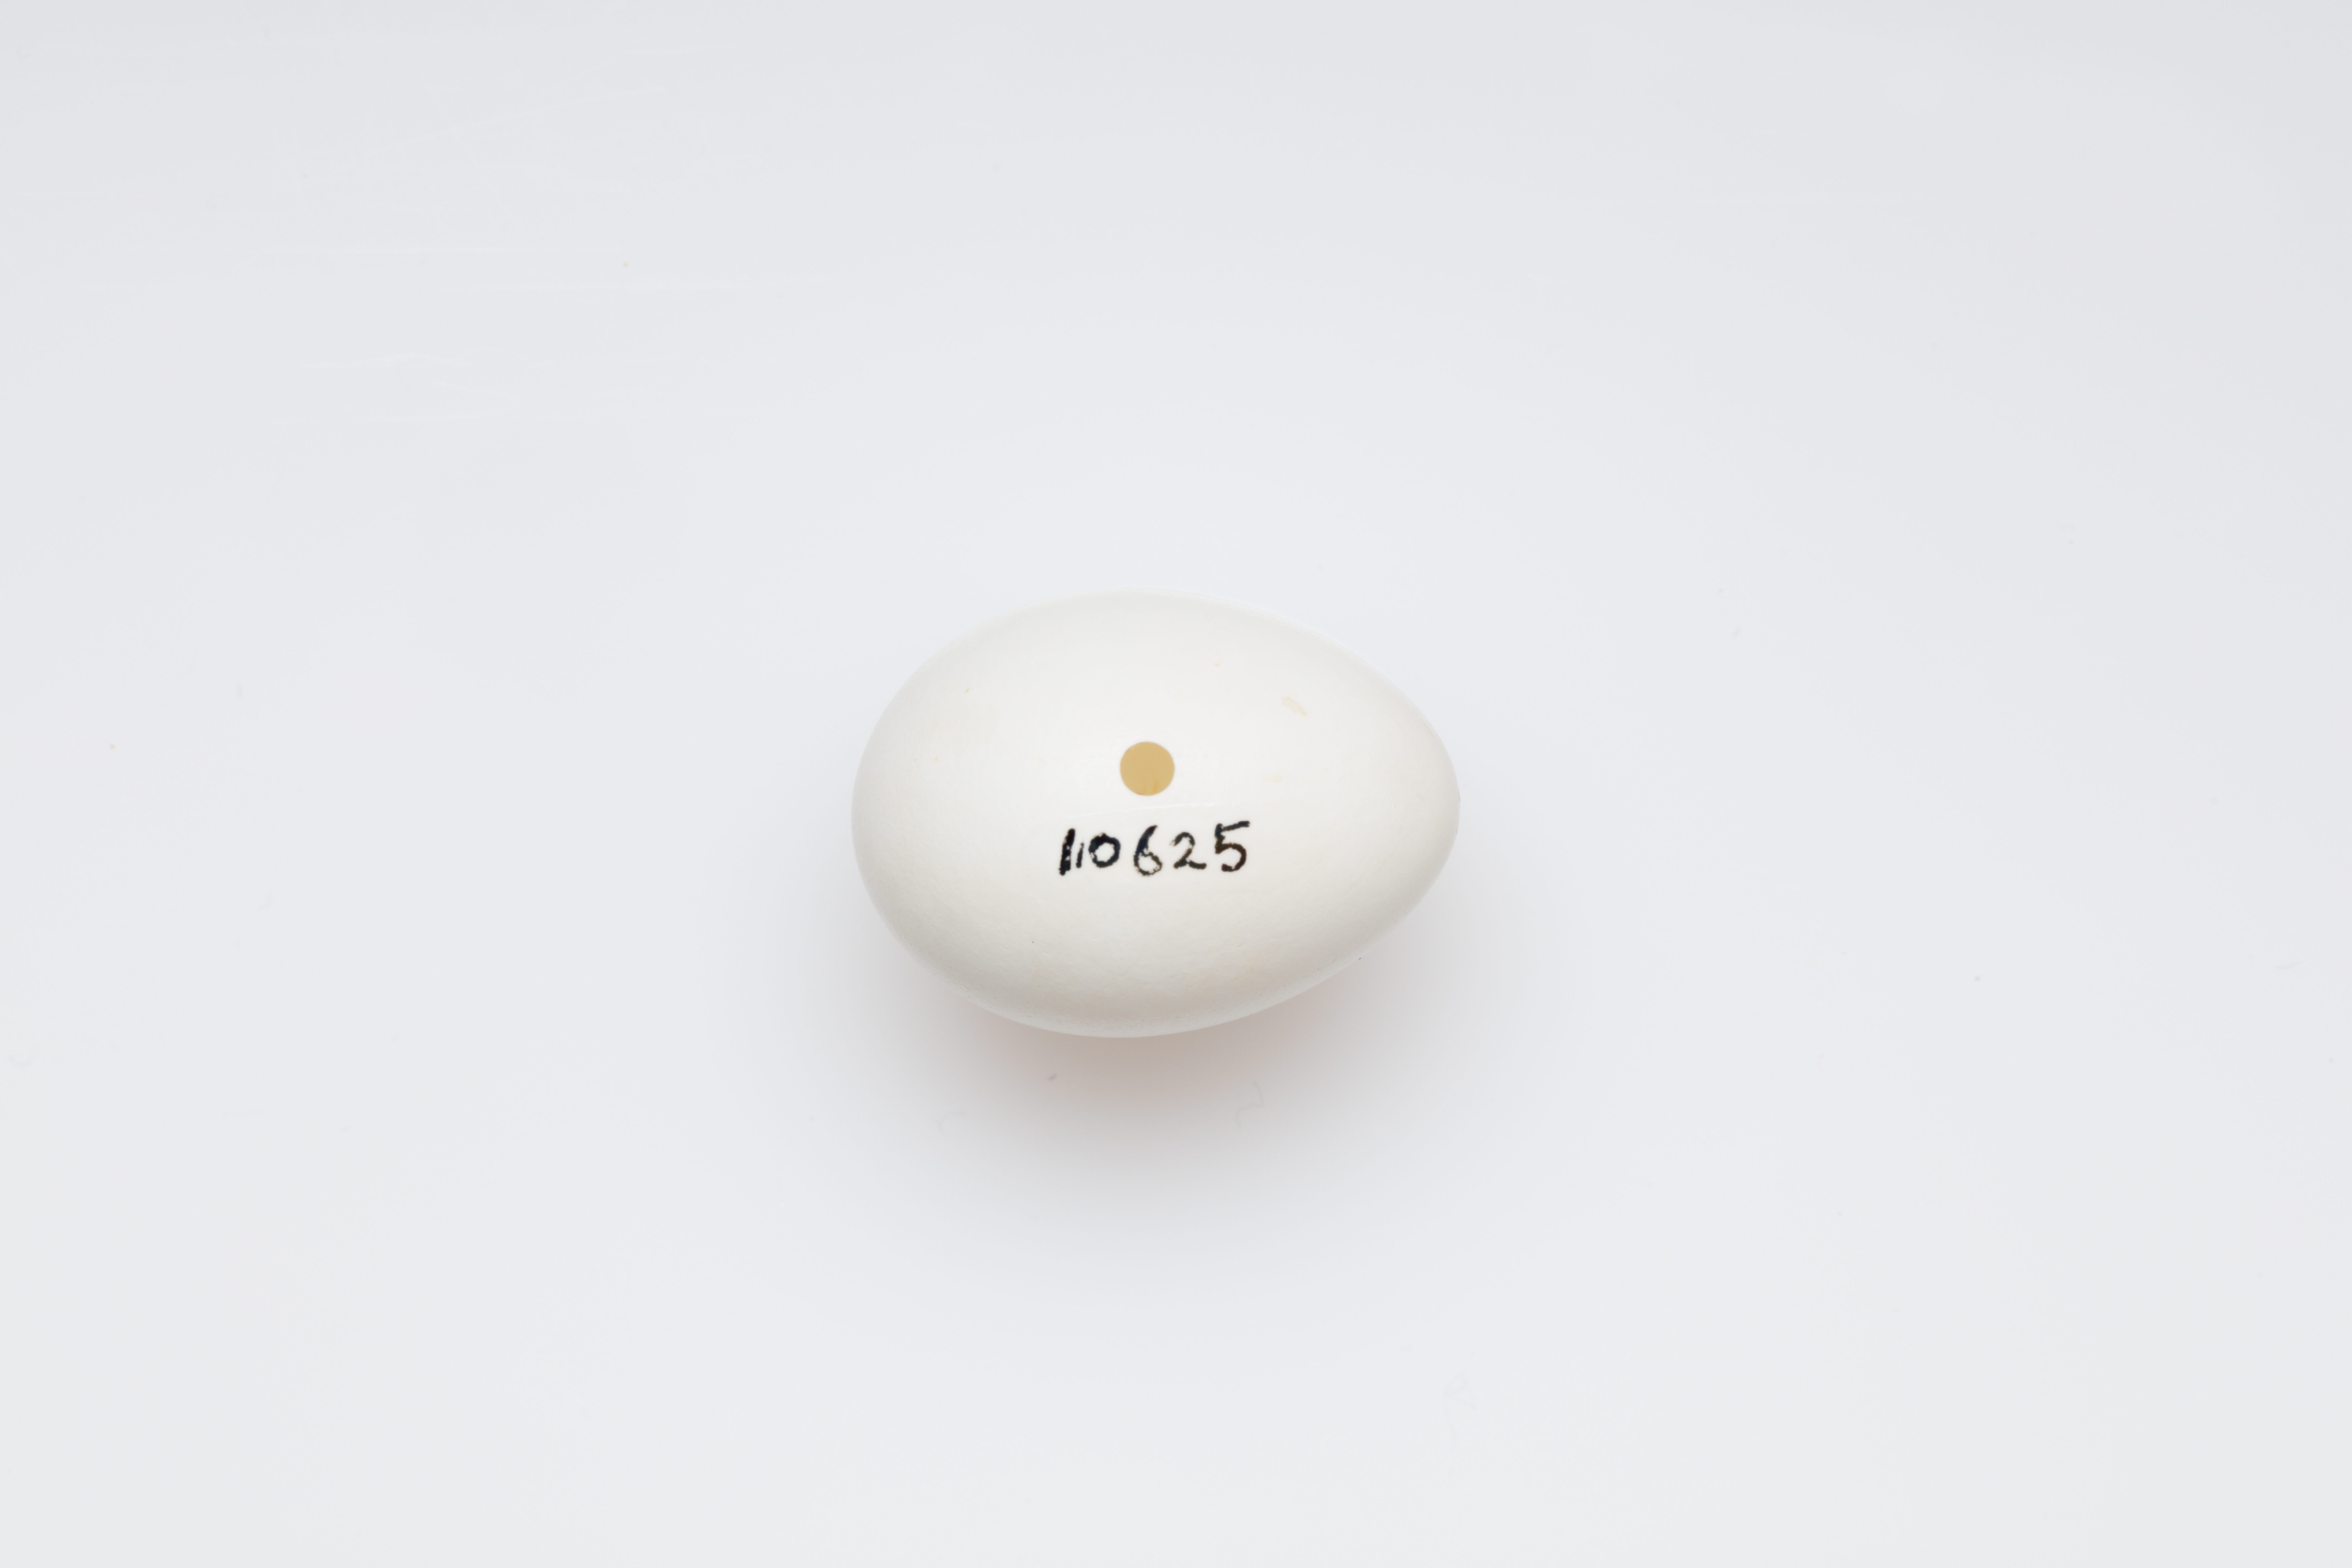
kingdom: Animalia
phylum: Chordata
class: Aves
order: Passeriformes
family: Cinclidae
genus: Cinclus
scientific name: Cinclus cinclus
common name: White-throated dipper
